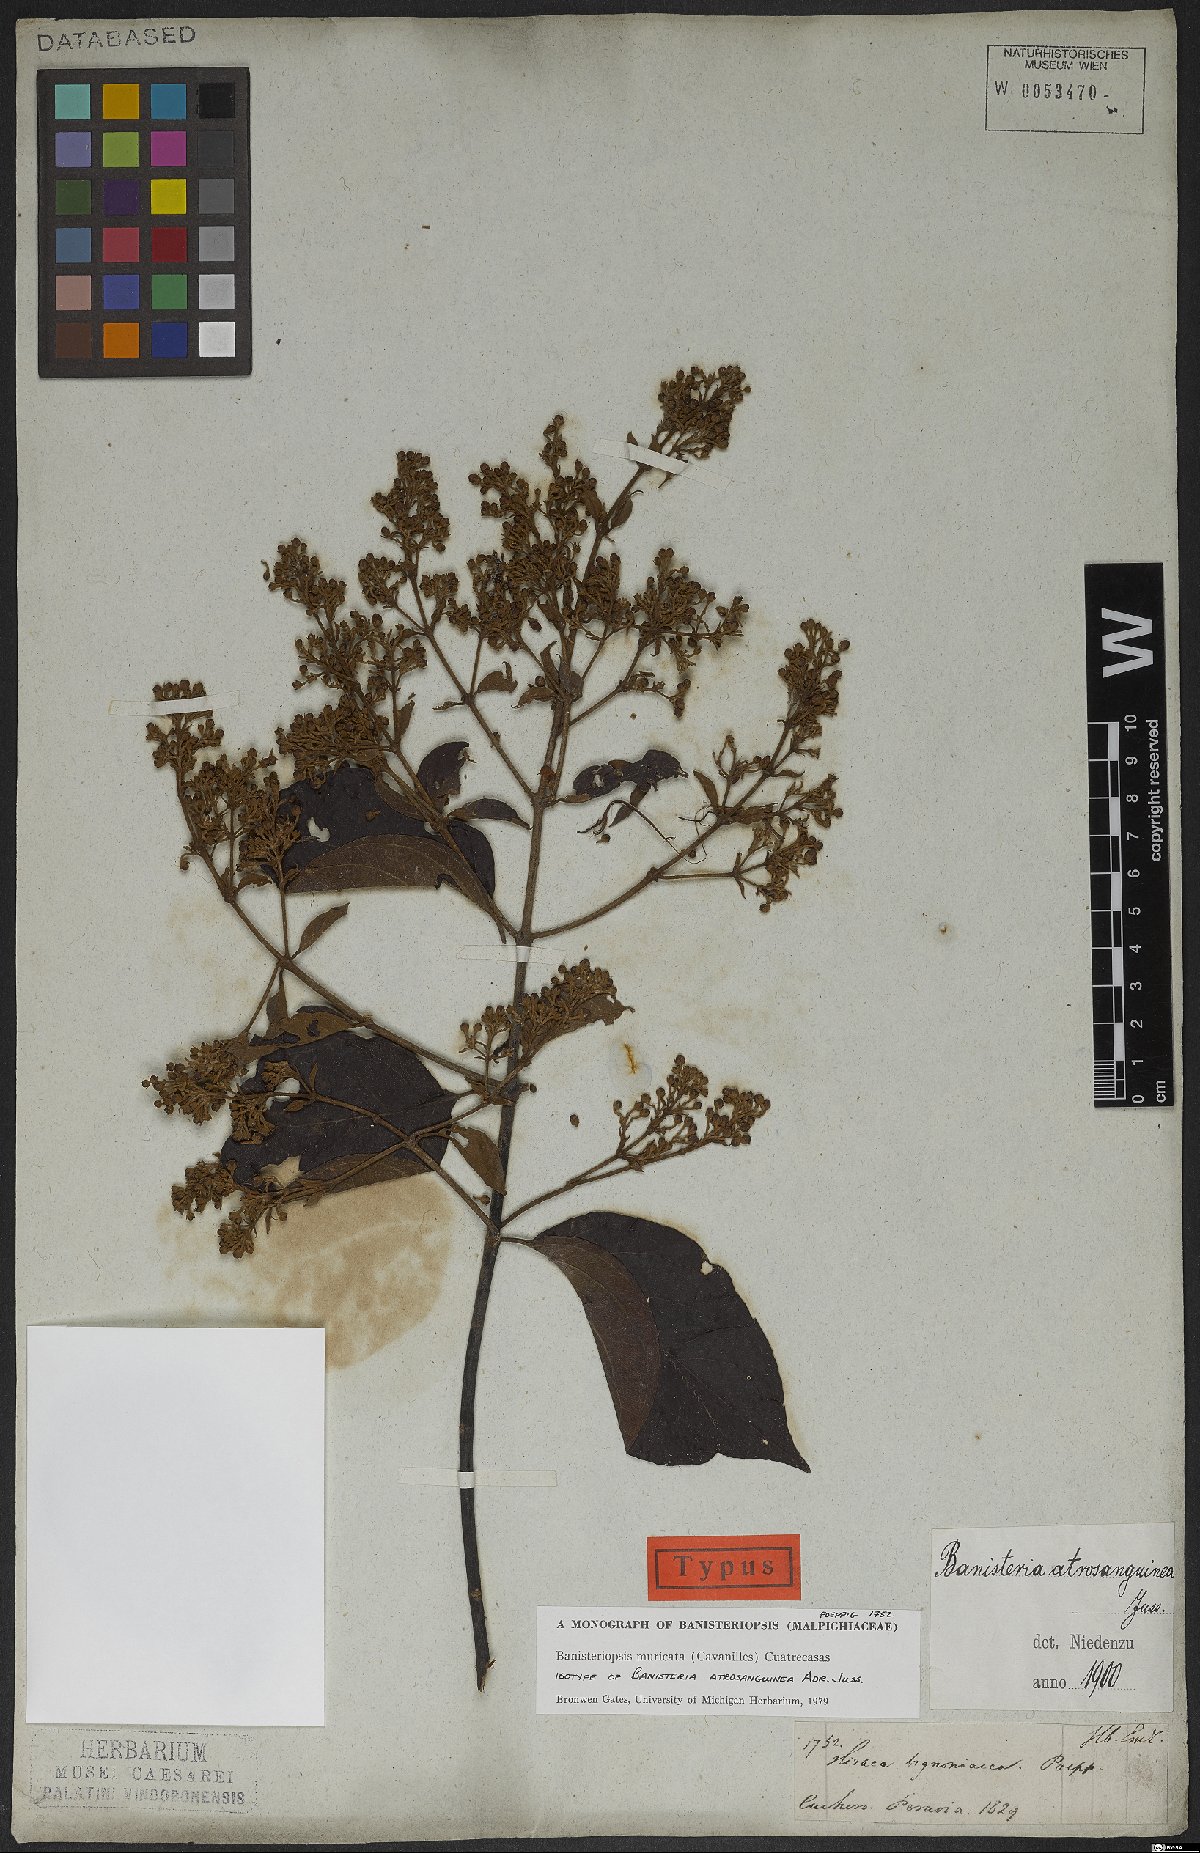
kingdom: Plantae
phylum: Tracheophyta
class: Magnoliopsida
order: Malpighiales
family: Malpighiaceae
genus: Banisteriopsis
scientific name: Banisteriopsis muricata
